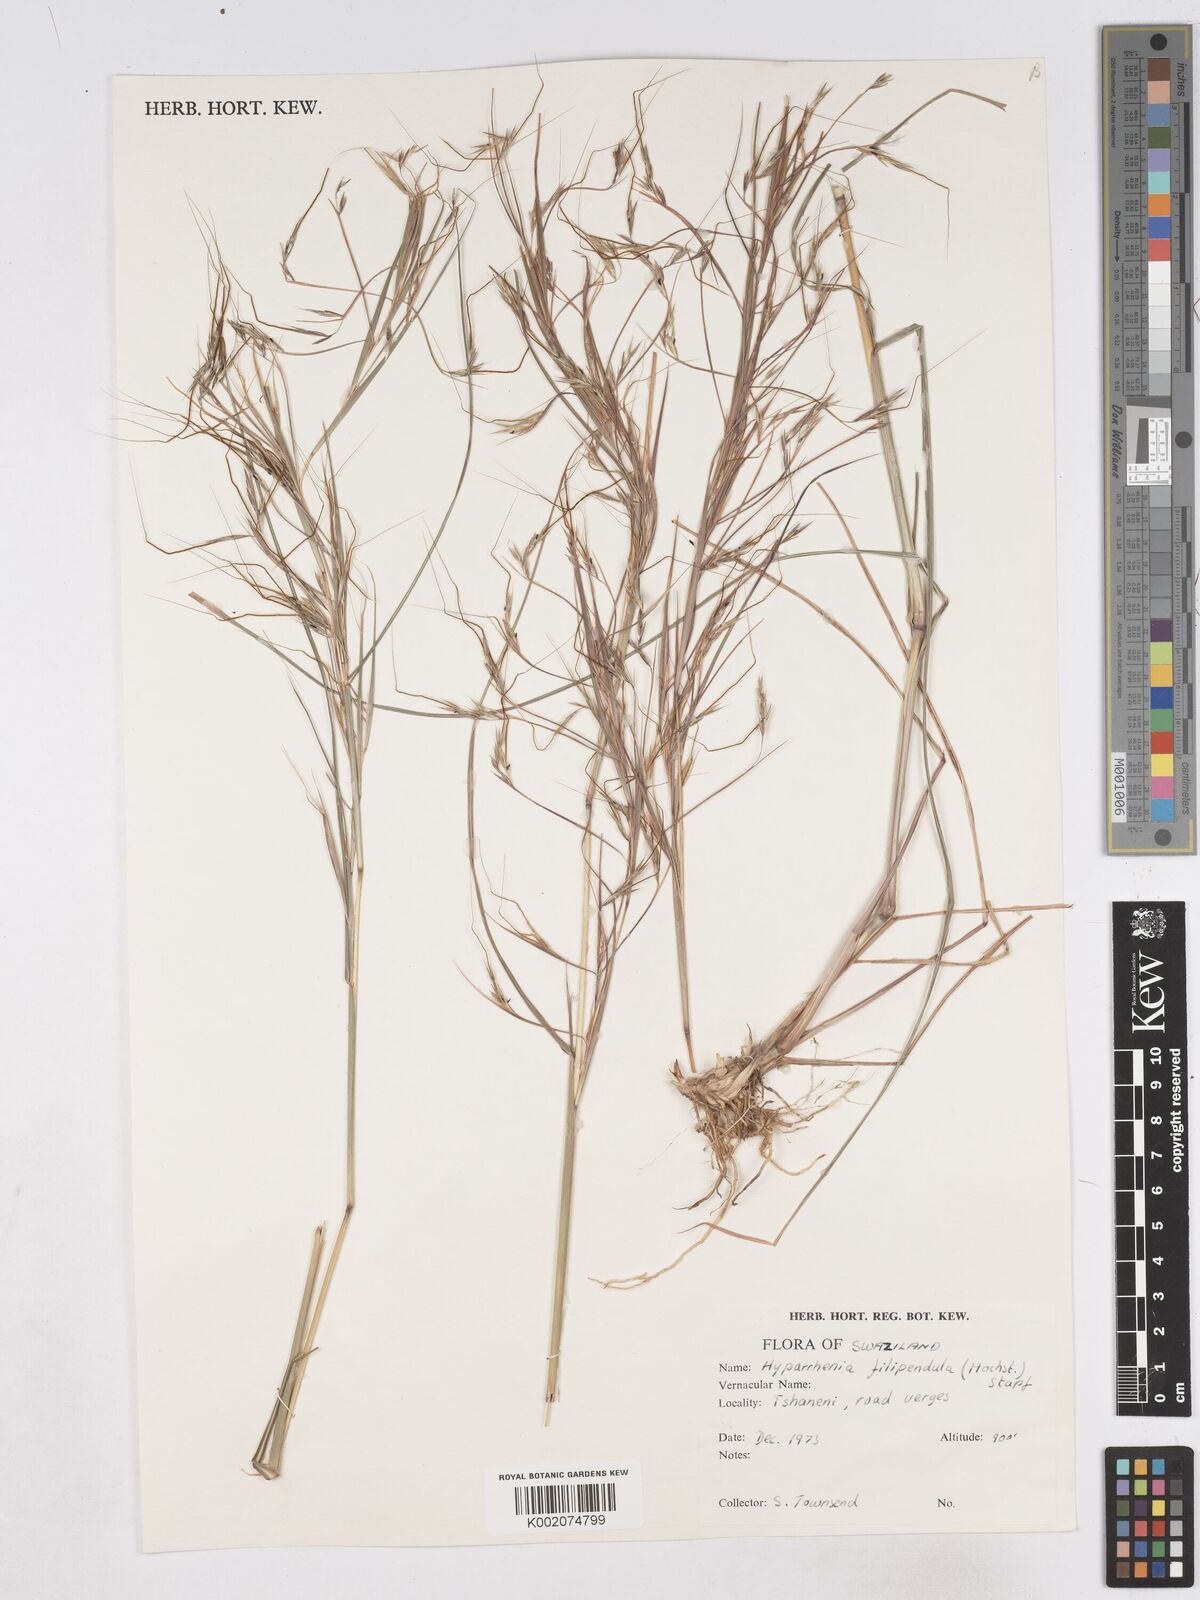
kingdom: Plantae
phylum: Tracheophyta
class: Liliopsida
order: Poales
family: Poaceae
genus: Hyparrhenia
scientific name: Hyparrhenia filipendula
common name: Tambookie grass
